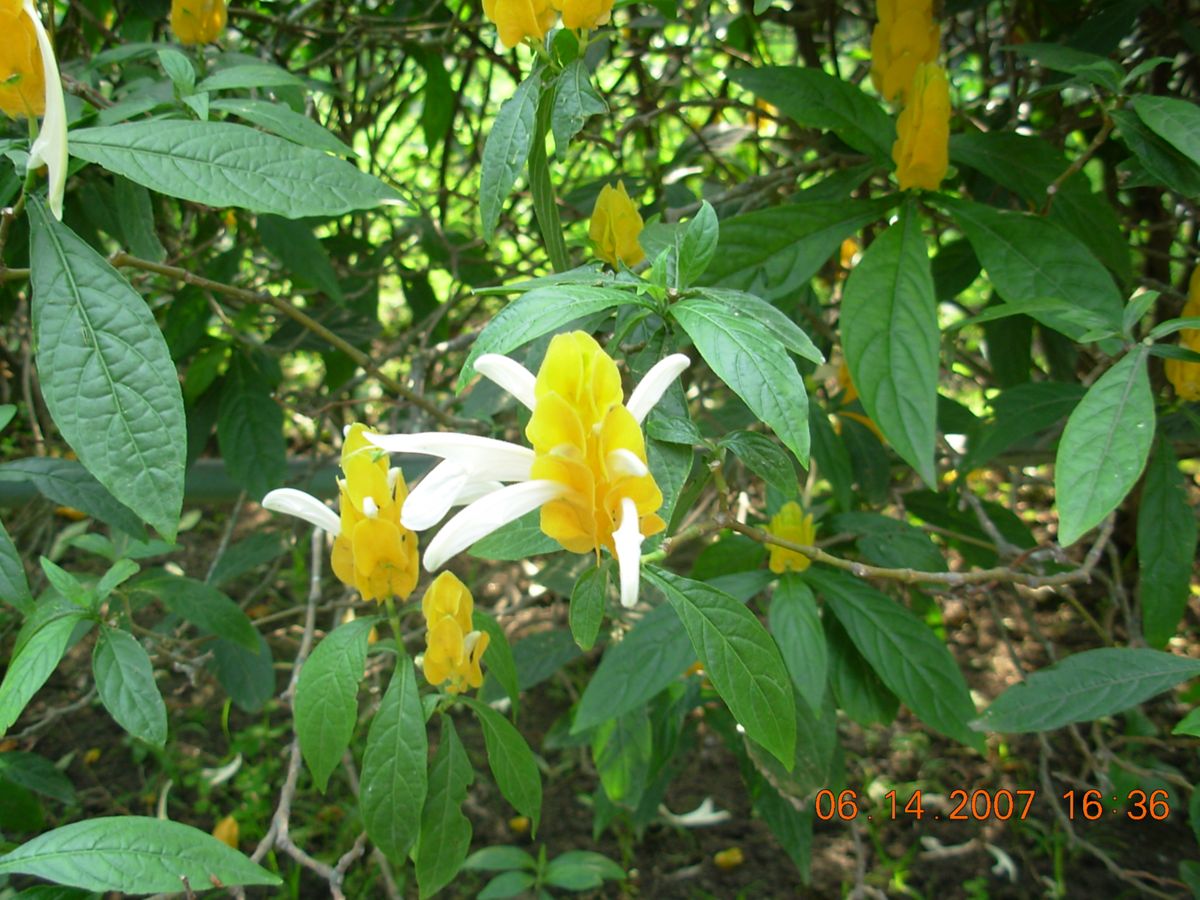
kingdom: Plantae
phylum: Tracheophyta
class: Magnoliopsida
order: Lamiales
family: Acanthaceae
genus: Pachystachys
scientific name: Pachystachys lutea
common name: Golden shrimp-plant
